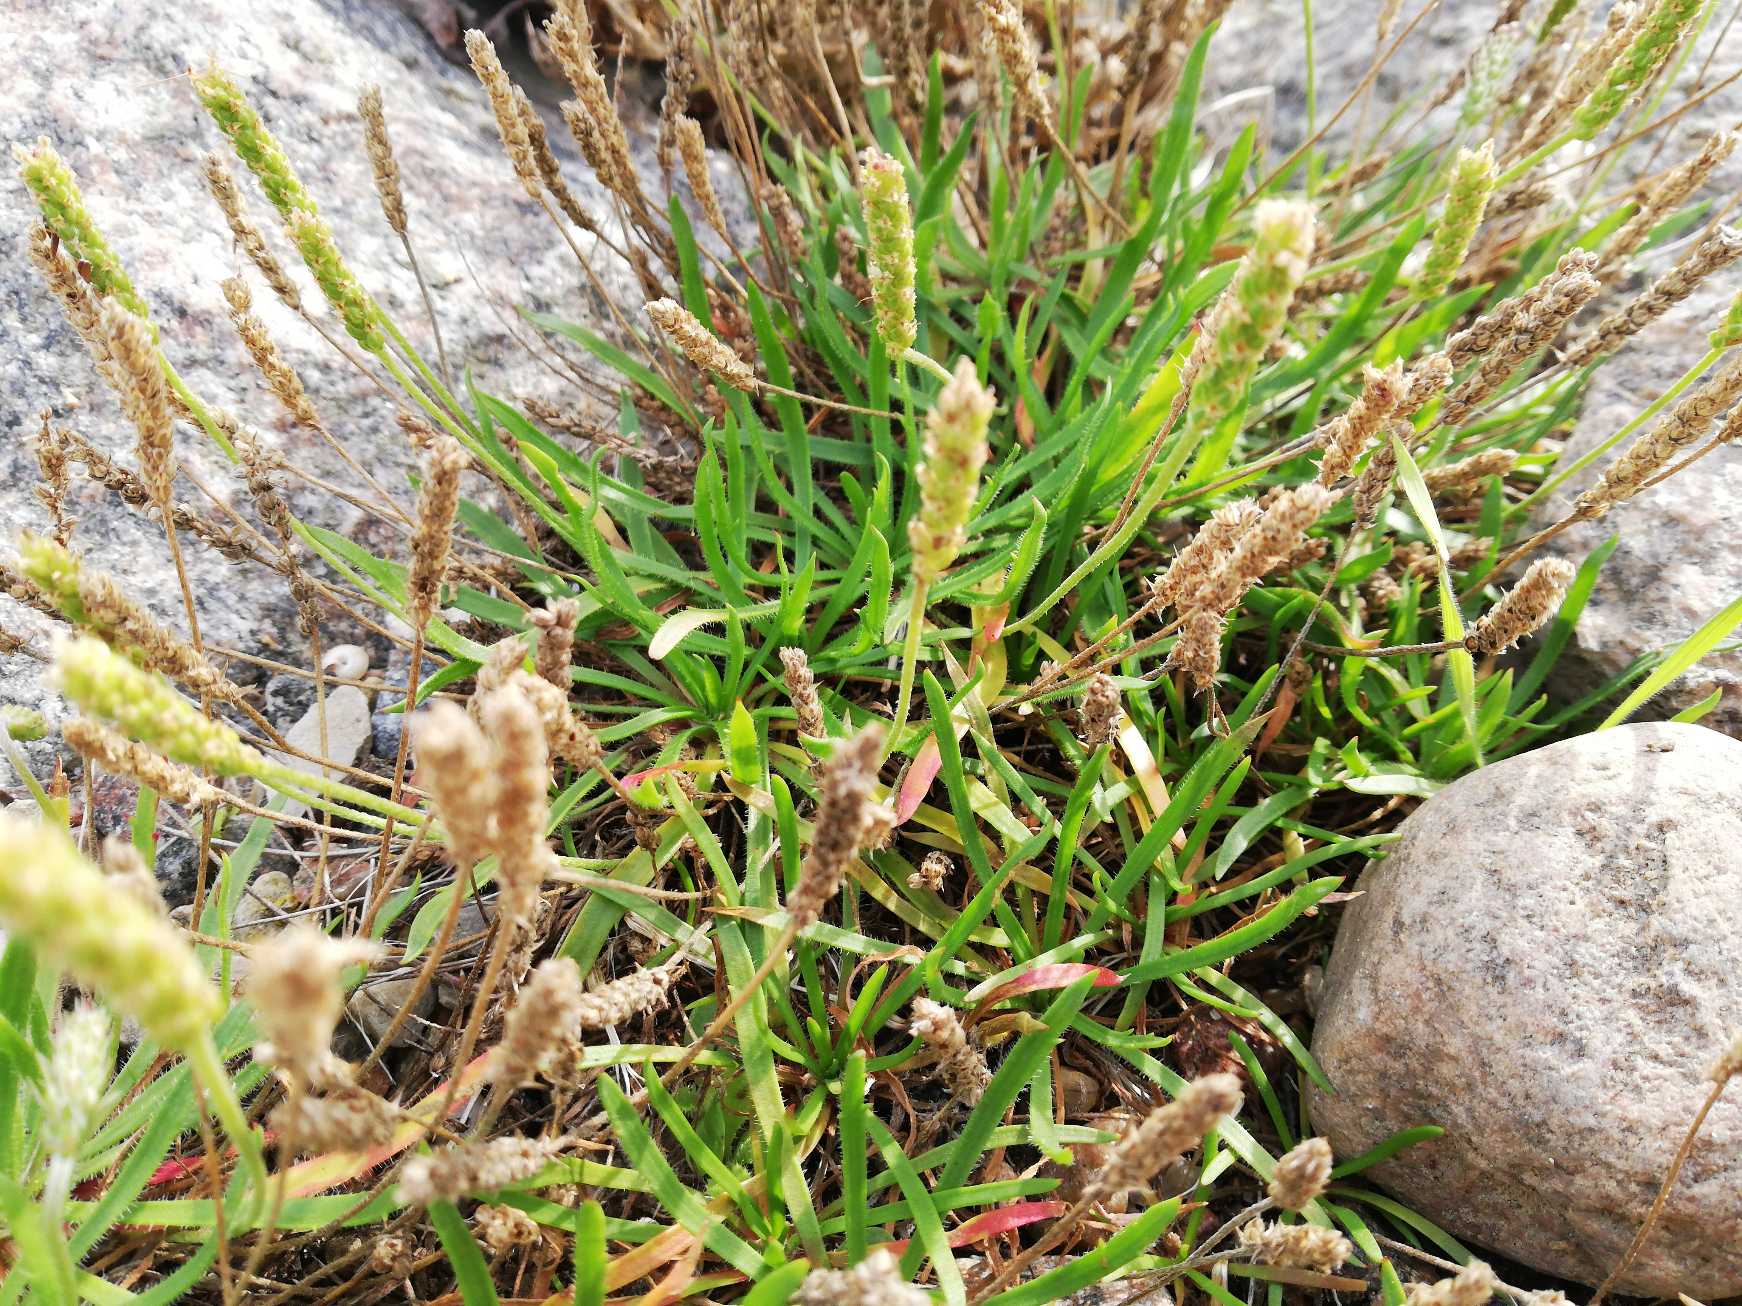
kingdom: Plantae
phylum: Tracheophyta
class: Magnoliopsida
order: Lamiales
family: Plantaginaceae
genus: Plantago
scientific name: Plantago coronopus
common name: Fliget vejbred
